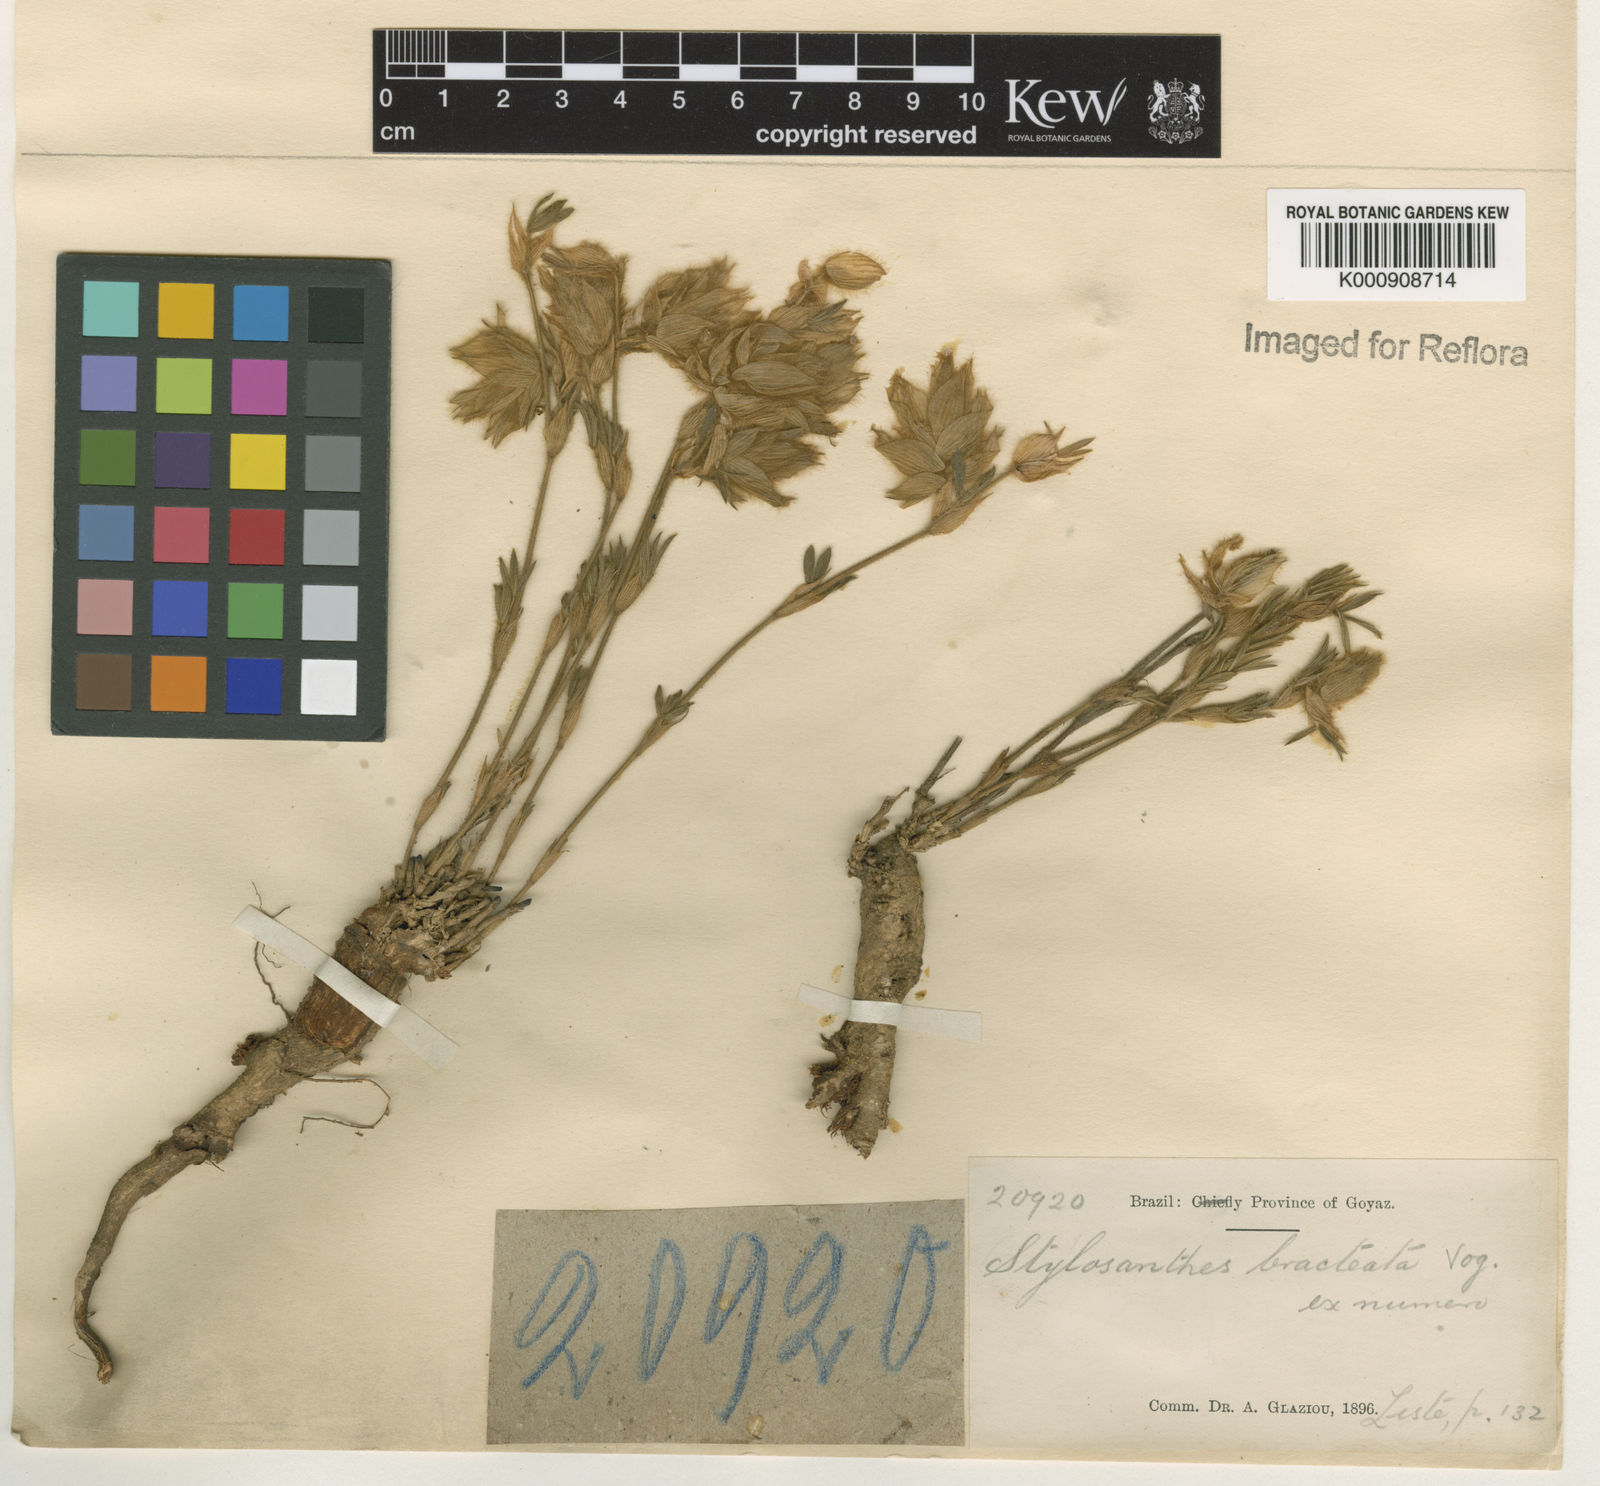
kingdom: Plantae
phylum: Tracheophyta
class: Magnoliopsida
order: Fabales
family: Fabaceae
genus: Stylosanthes
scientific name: Stylosanthes bracteata
